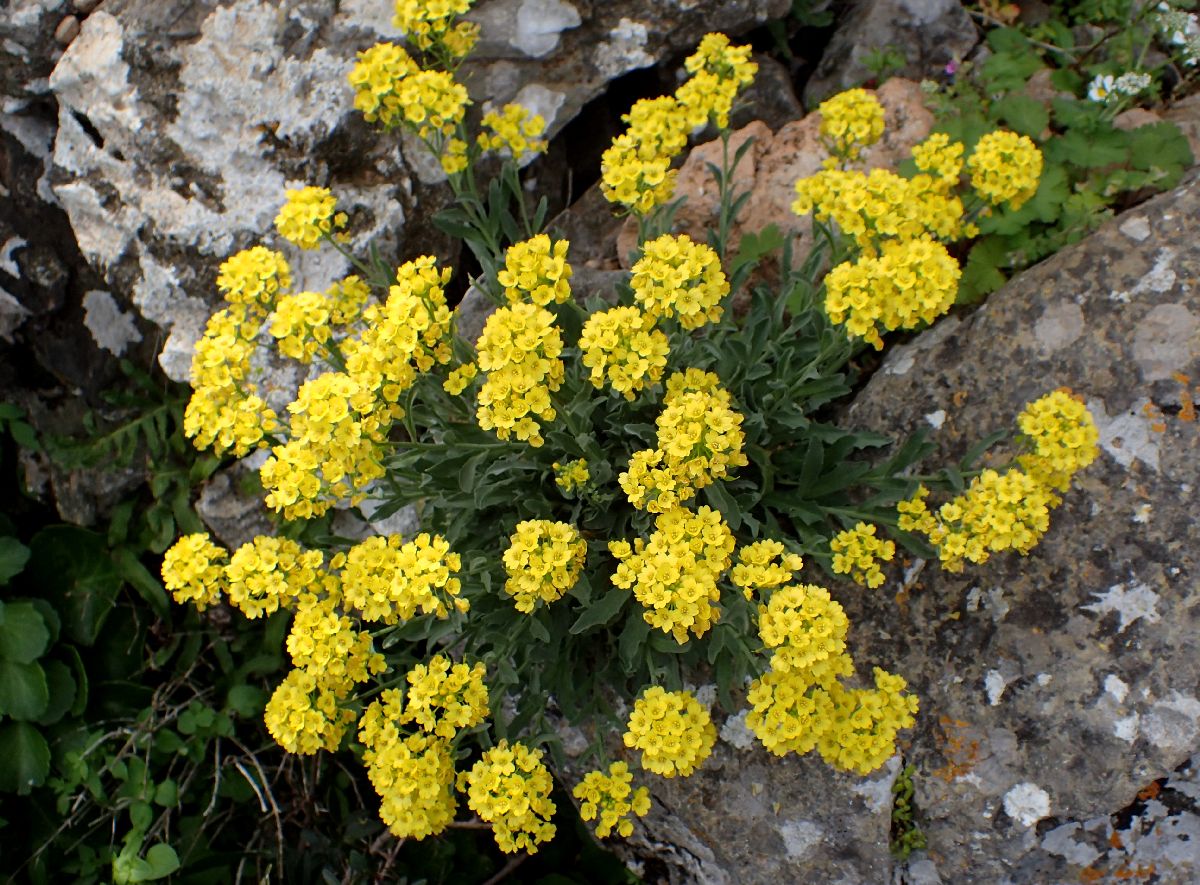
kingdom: Plantae
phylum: Tracheophyta
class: Magnoliopsida
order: Brassicales
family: Brassicaceae
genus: Aurinia
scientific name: Aurinia saxatilis
